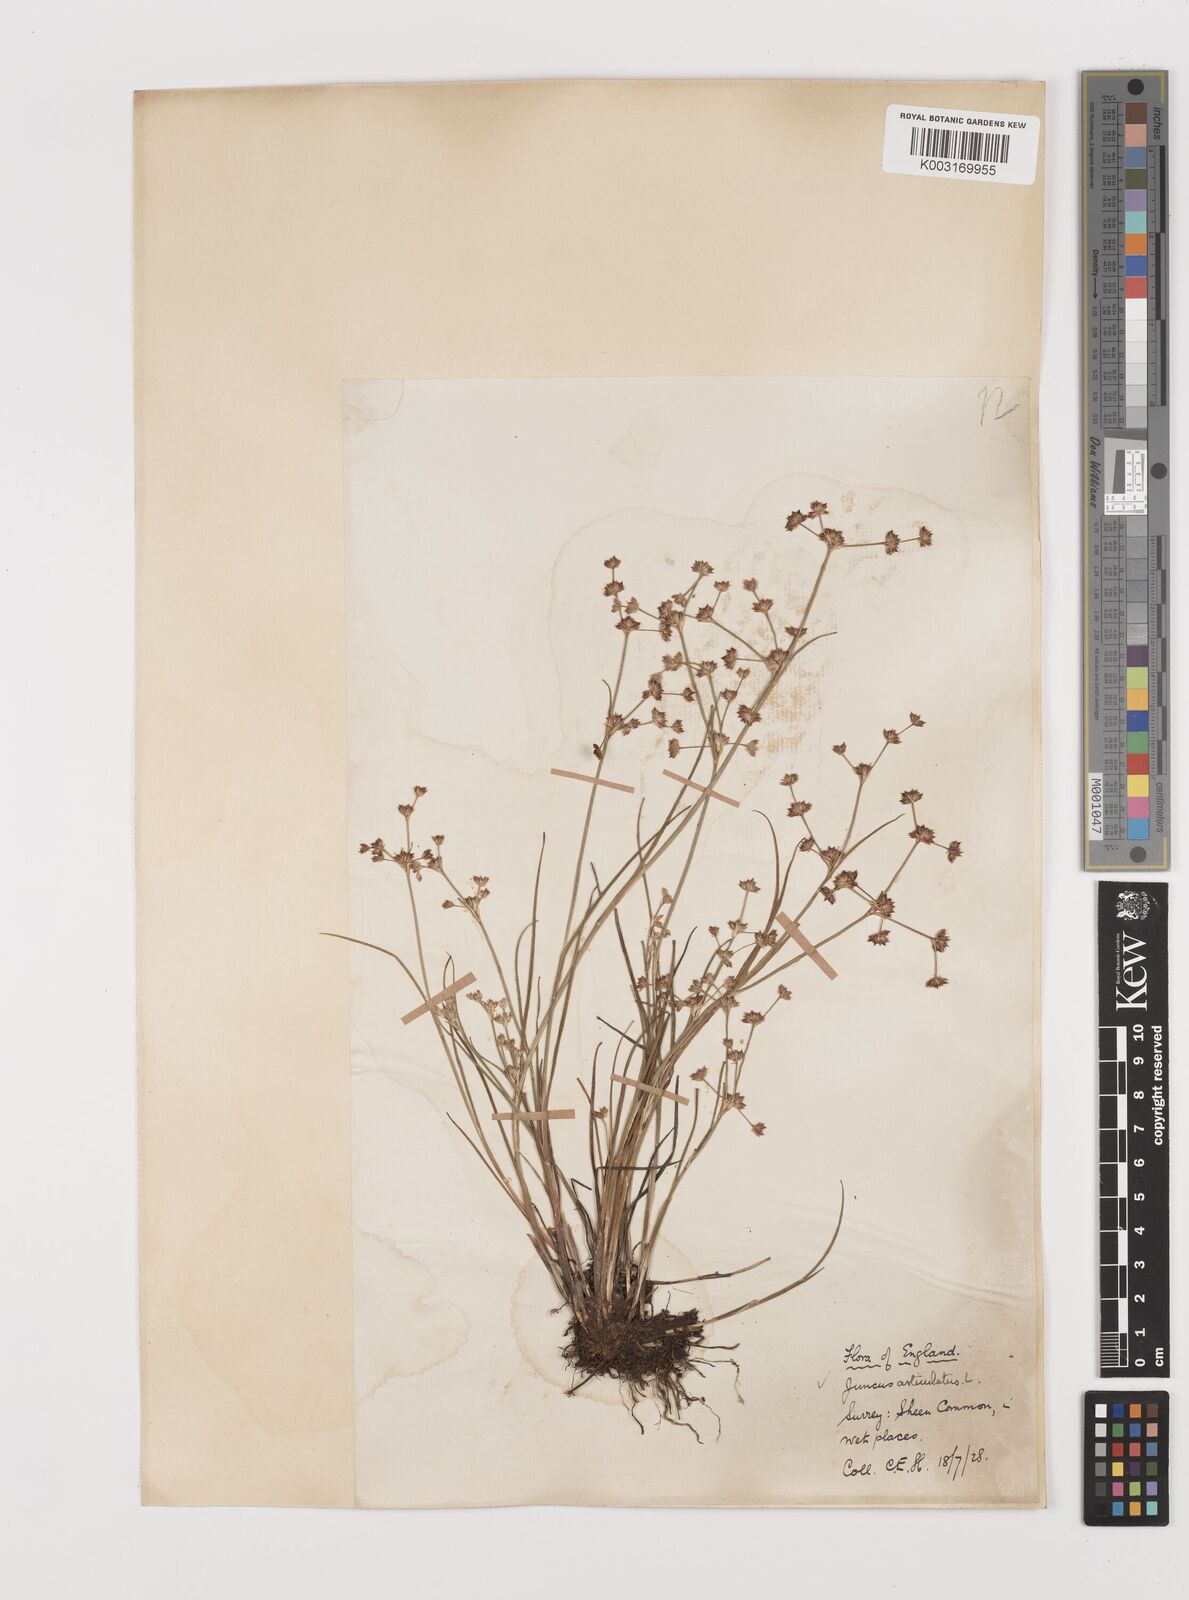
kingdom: Plantae
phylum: Tracheophyta
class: Liliopsida
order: Poales
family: Juncaceae
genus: Juncus
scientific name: Juncus articulatus
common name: Jointed rush
